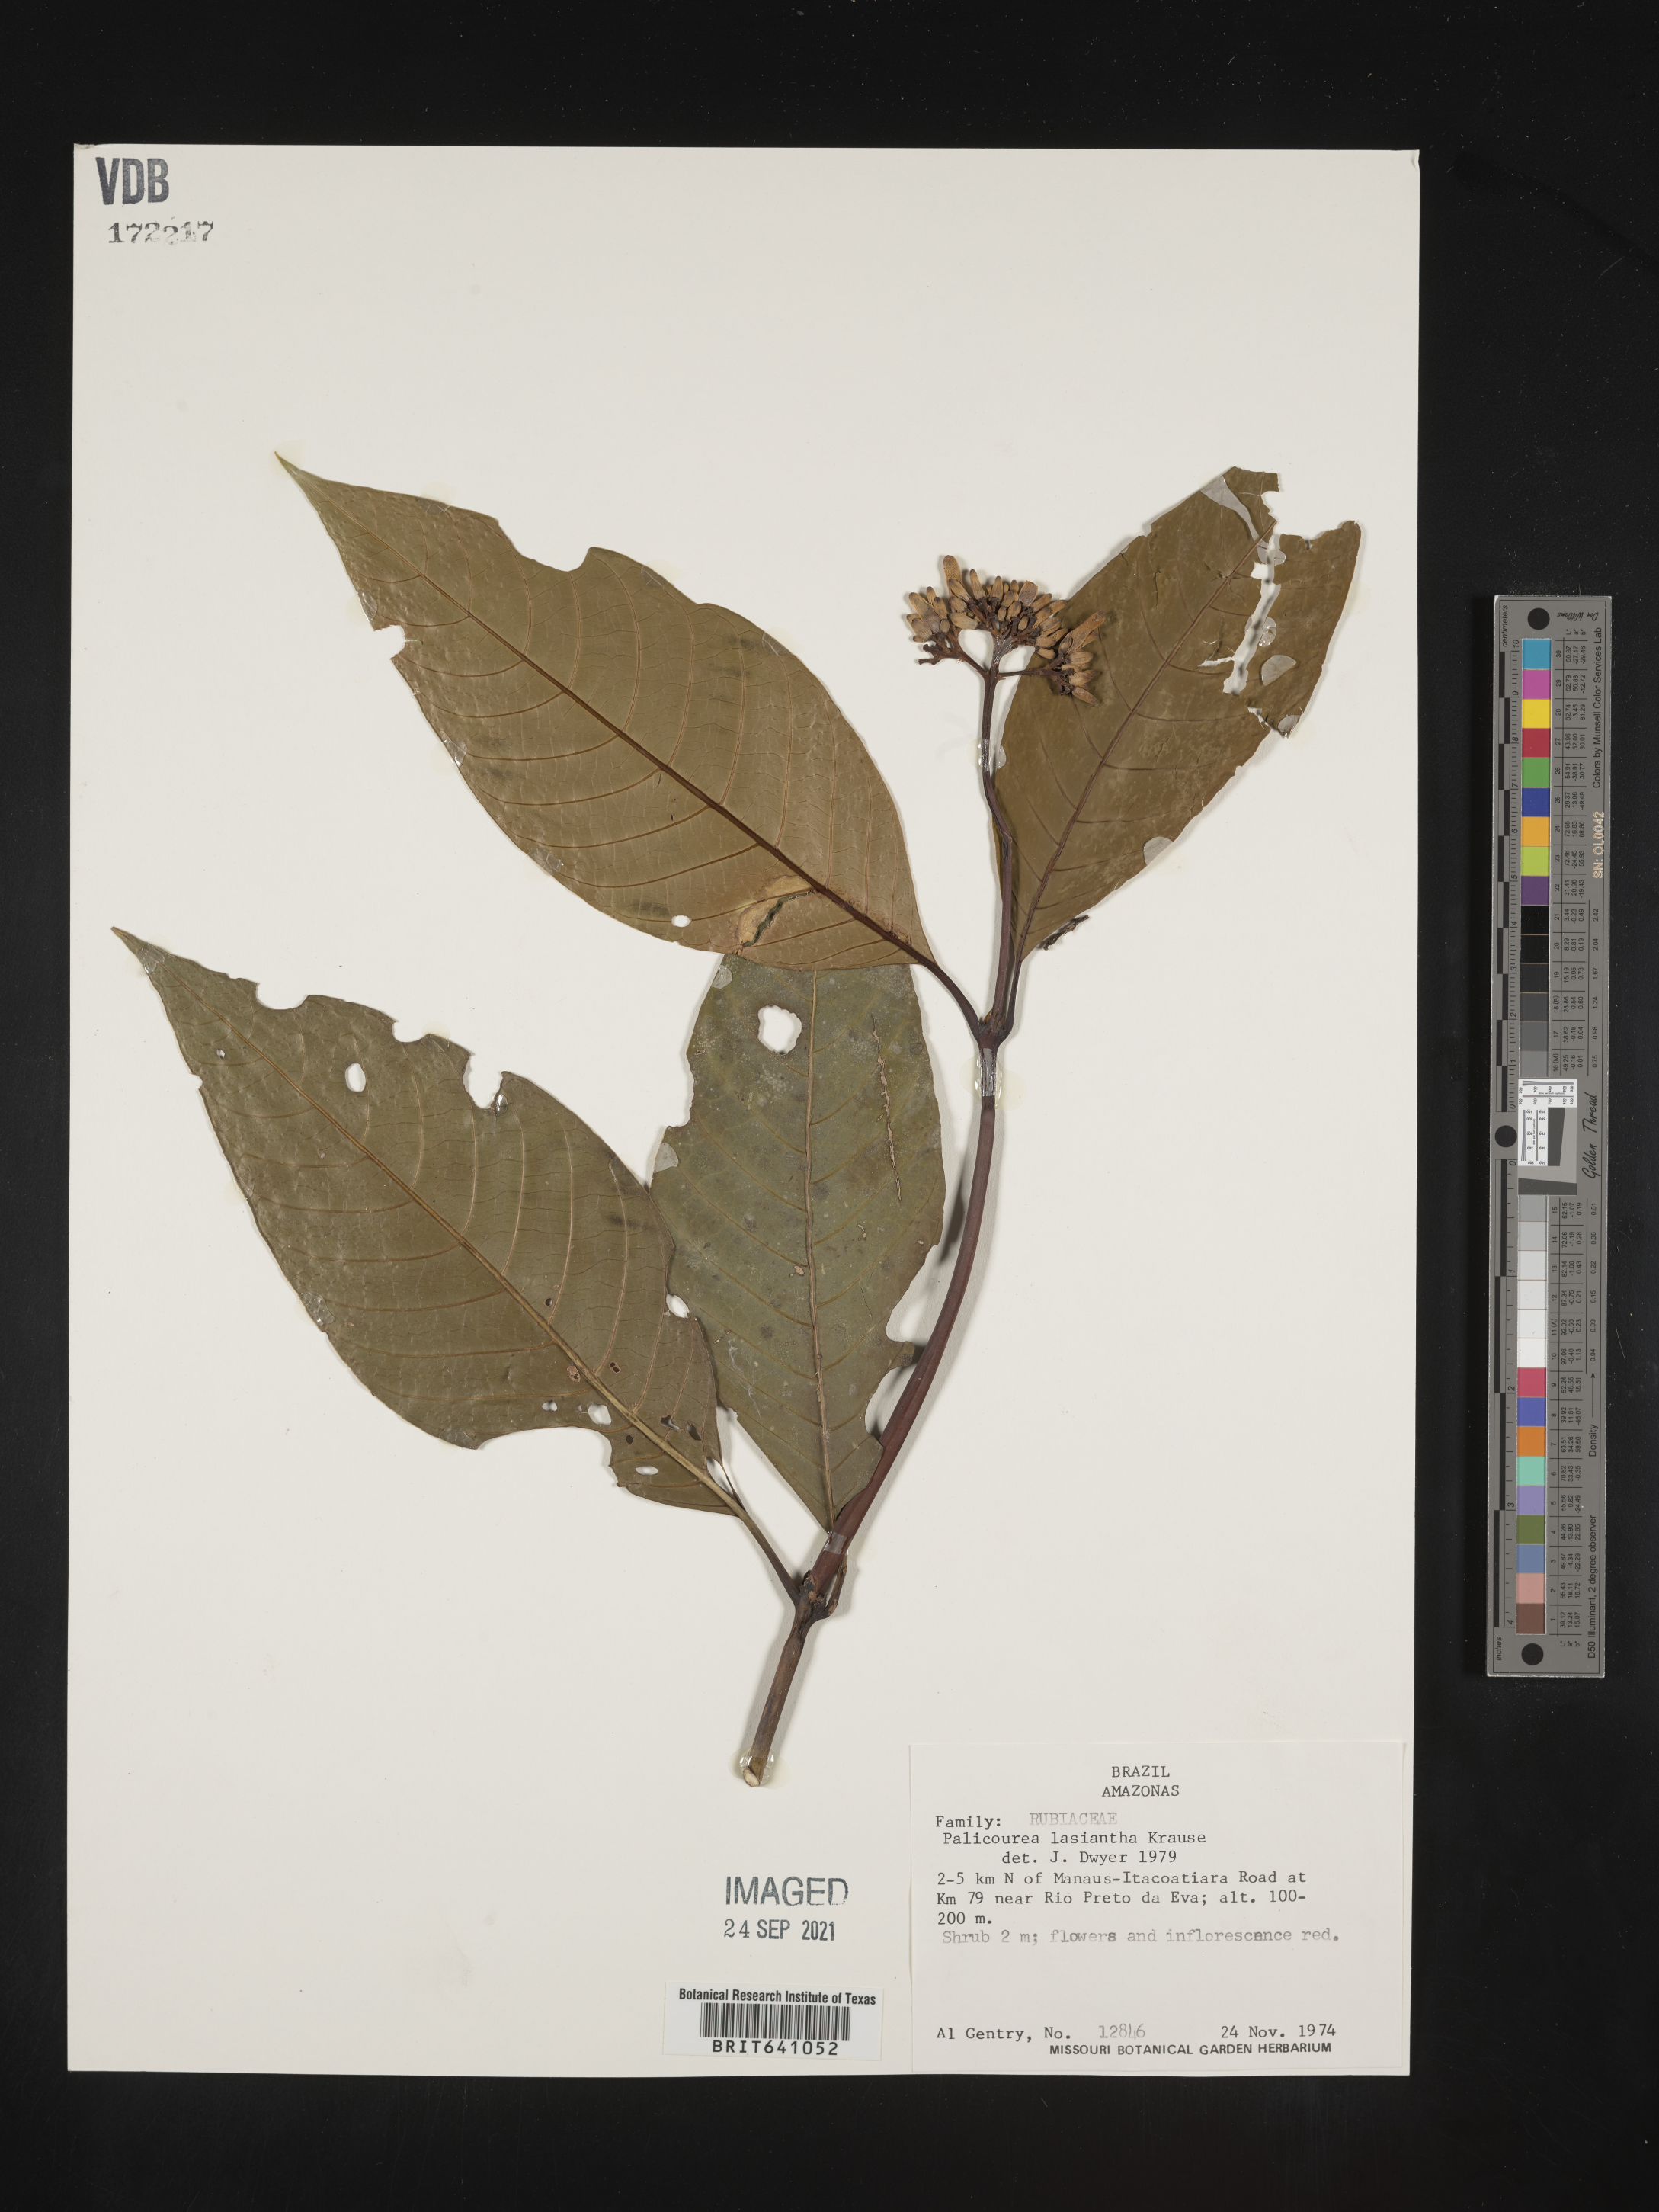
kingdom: Plantae
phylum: Tracheophyta
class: Magnoliopsida
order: Gentianales
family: Rubiaceae
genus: Palicourea
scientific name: Palicourea
